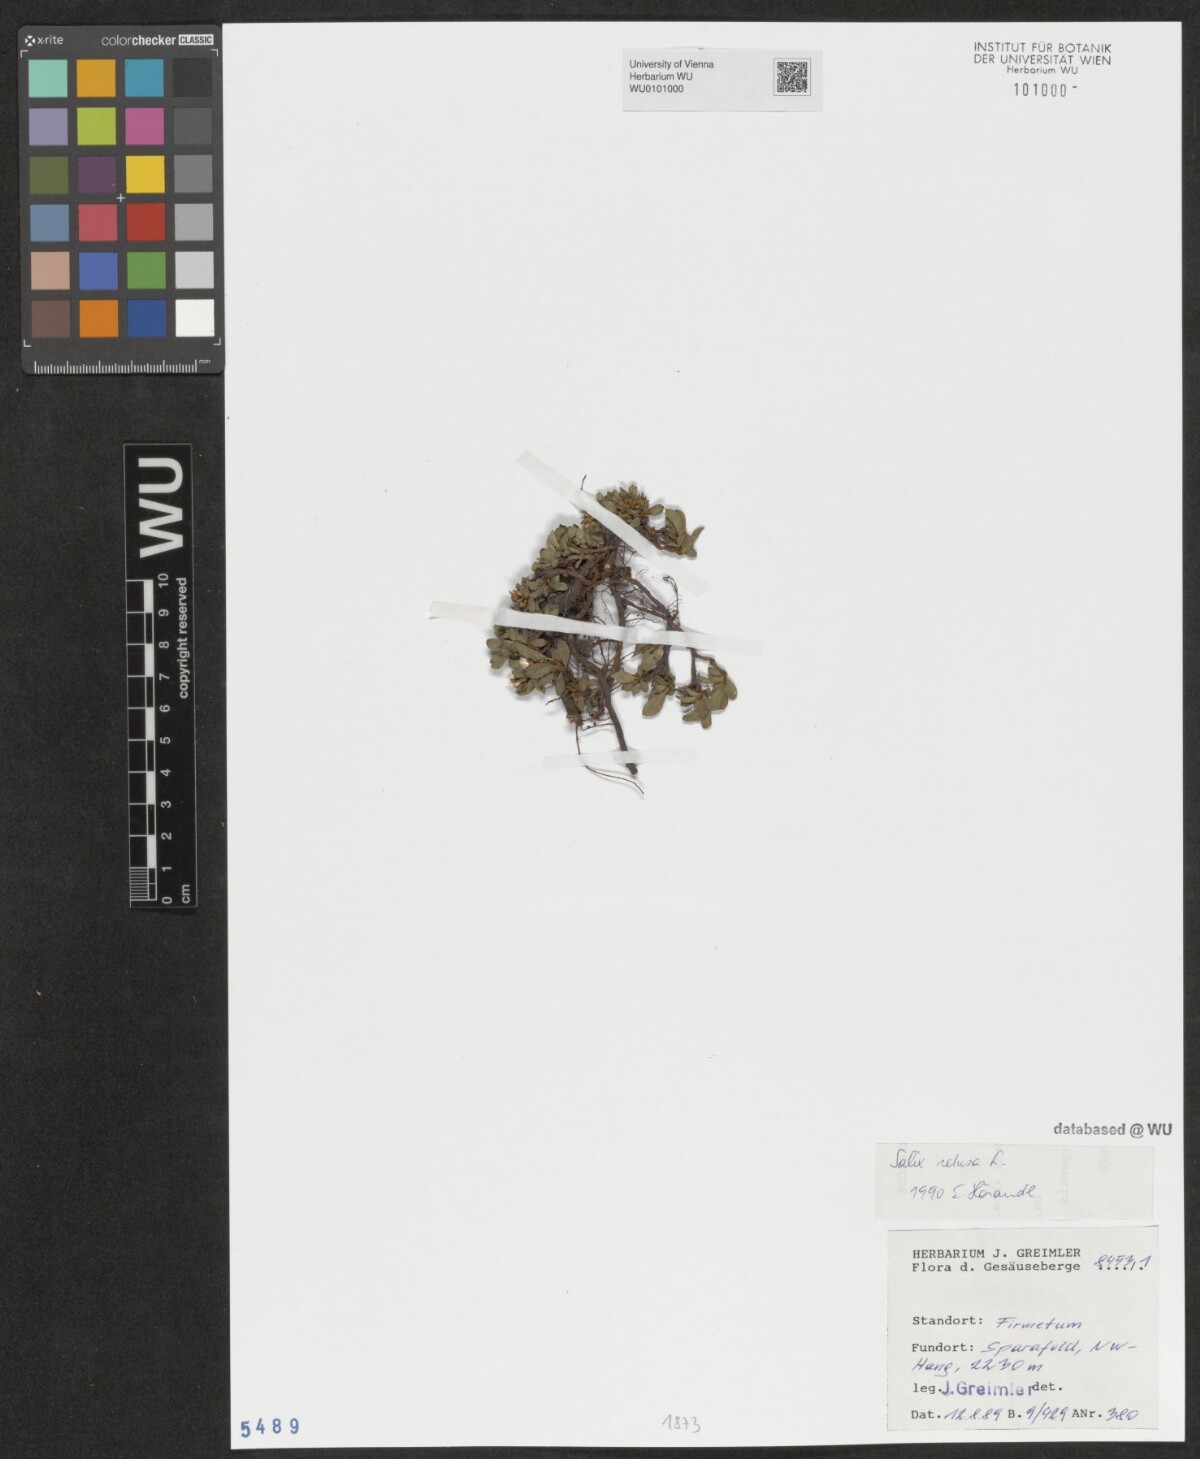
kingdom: Plantae
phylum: Tracheophyta
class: Magnoliopsida
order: Malpighiales
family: Salicaceae
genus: Salix
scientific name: Salix retusa
